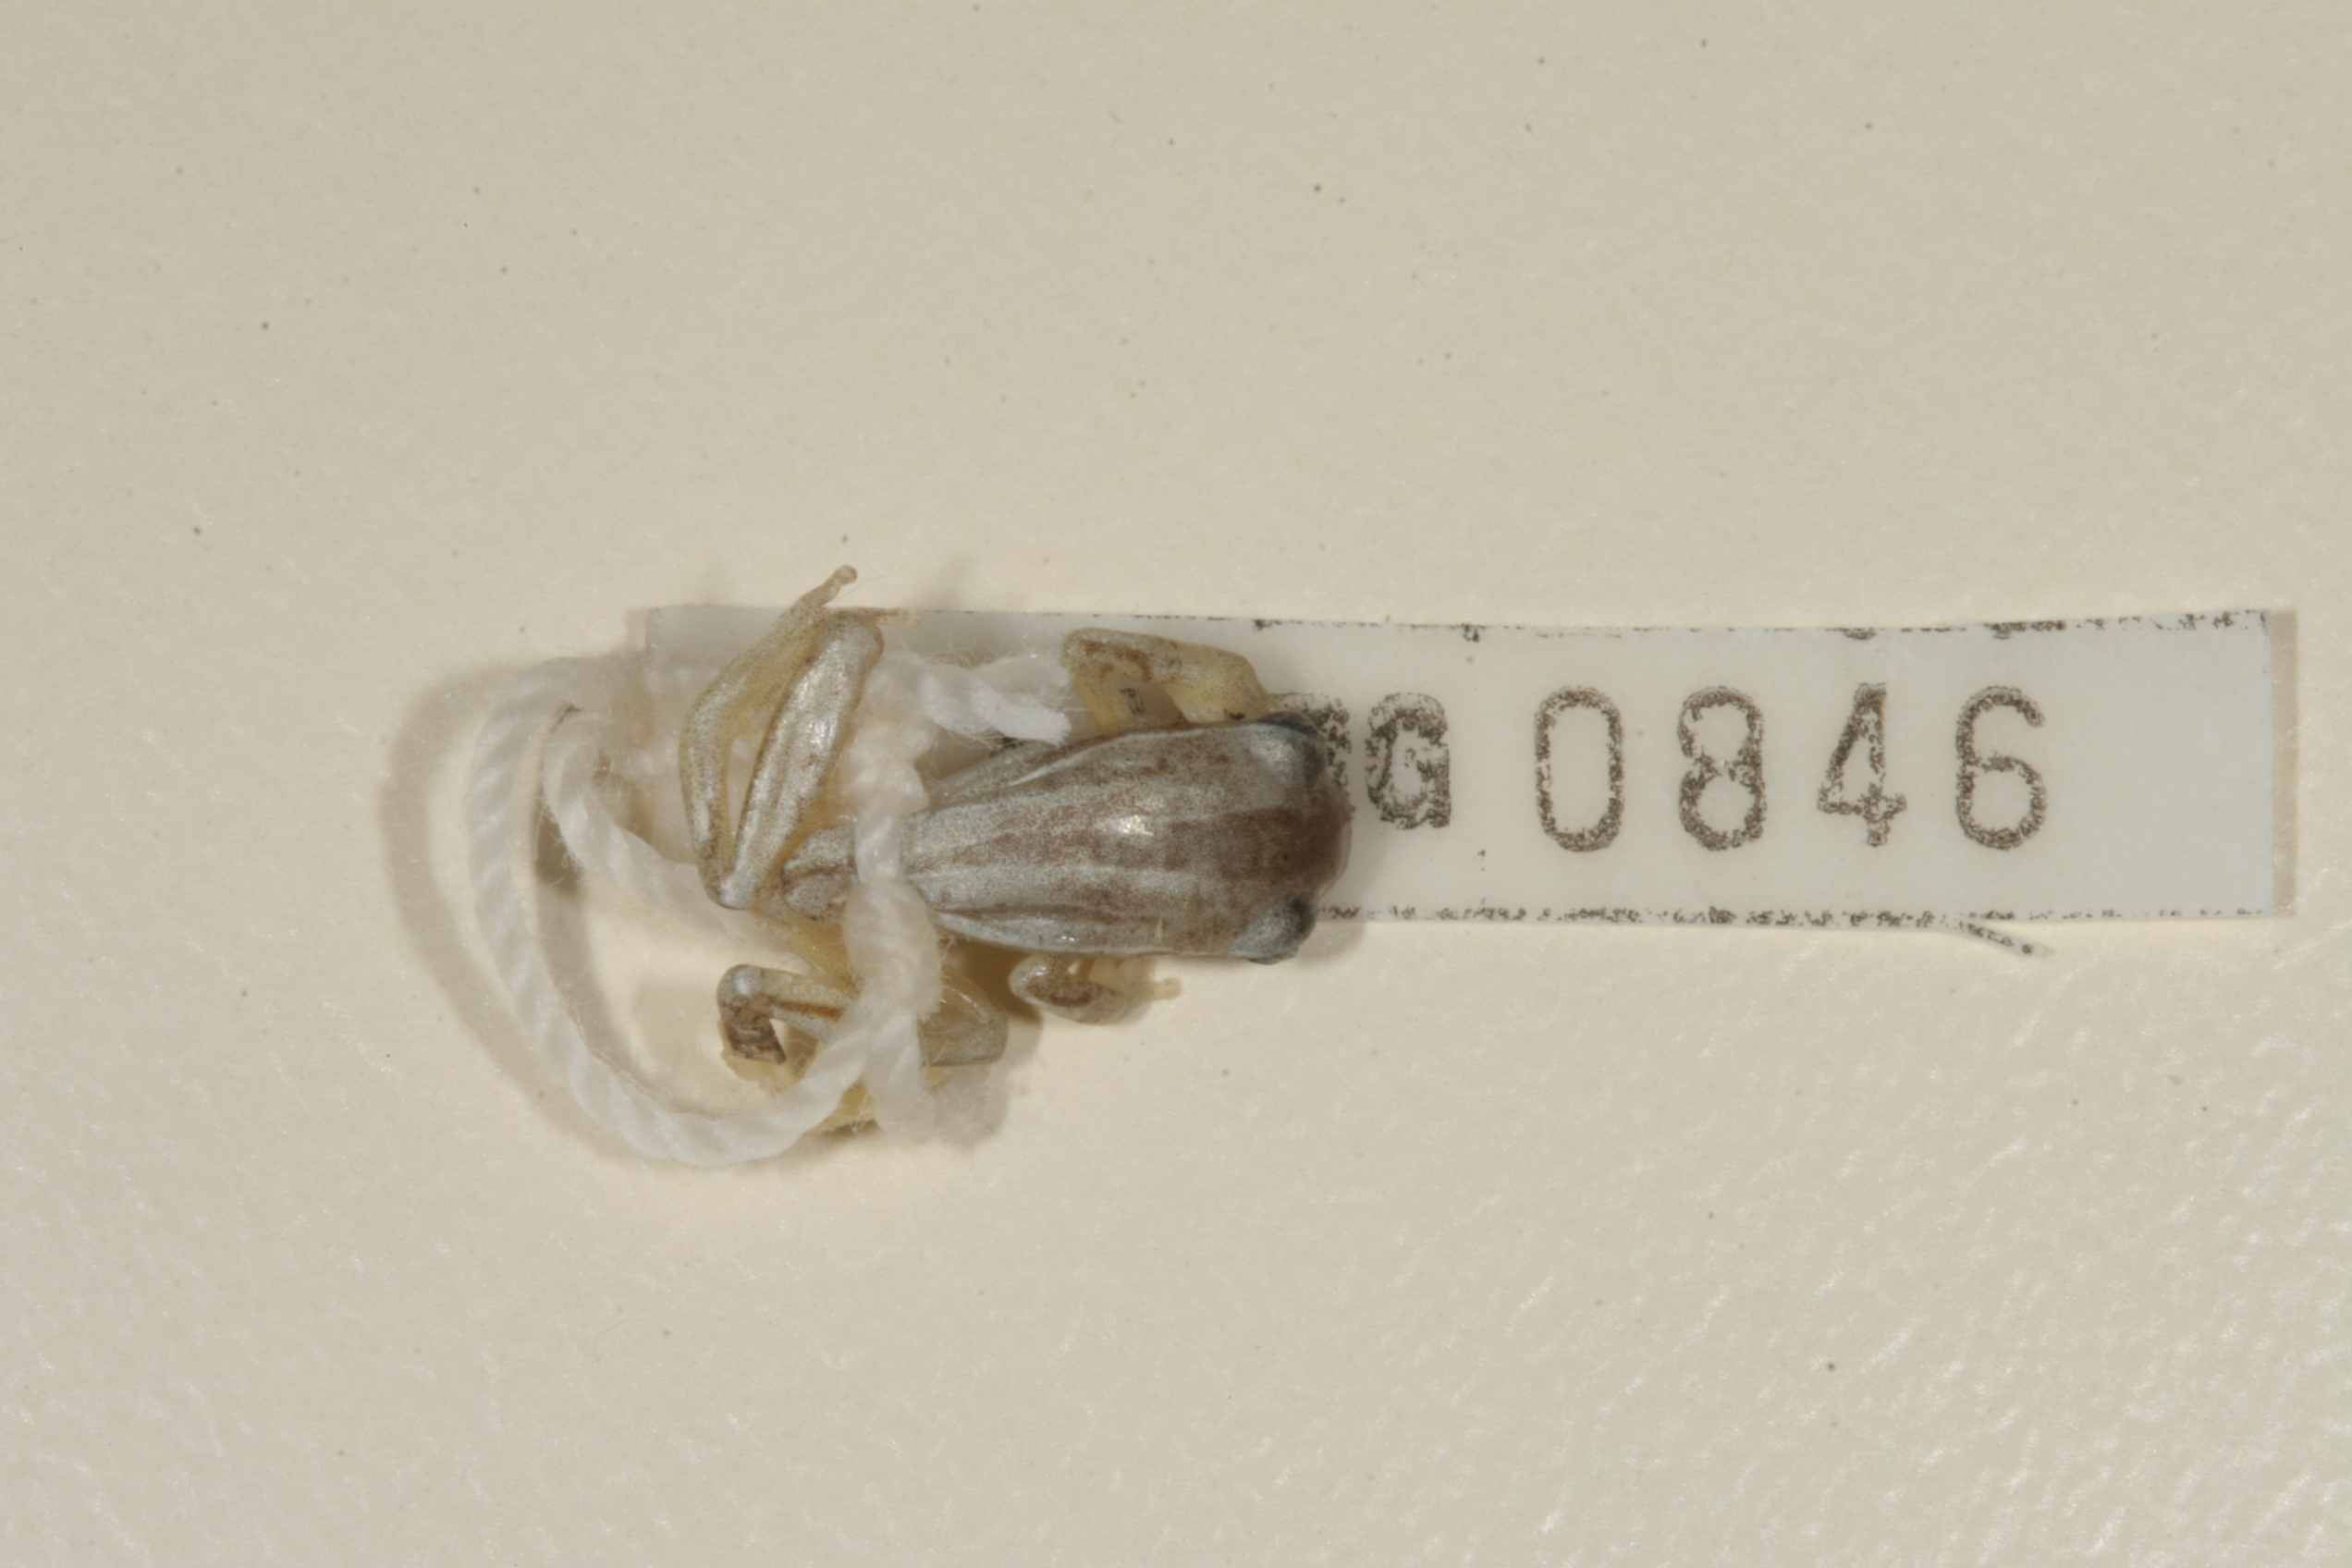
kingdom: Animalia
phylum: Chordata
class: Amphibia
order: Anura
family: Hyperoliidae
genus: Hyperolius
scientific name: Hyperolius marmoratus
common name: Painted reed frog
